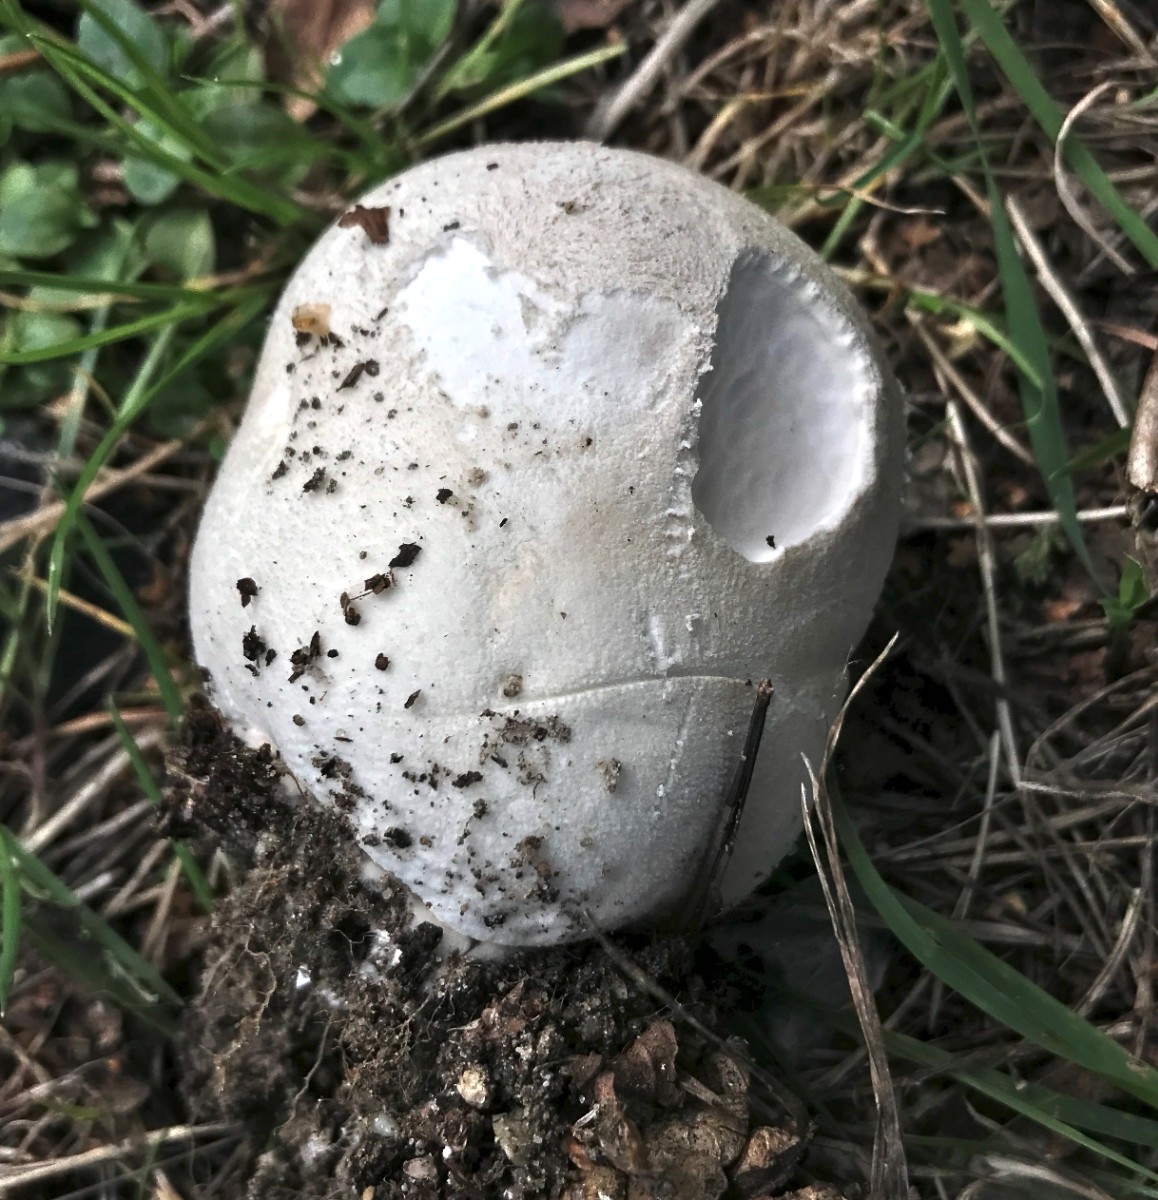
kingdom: Fungi
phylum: Basidiomycota
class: Agaricomycetes
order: Agaricales
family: Lycoperdaceae
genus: Calvatia
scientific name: Calvatia gigantea
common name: kæmpestøvbold
